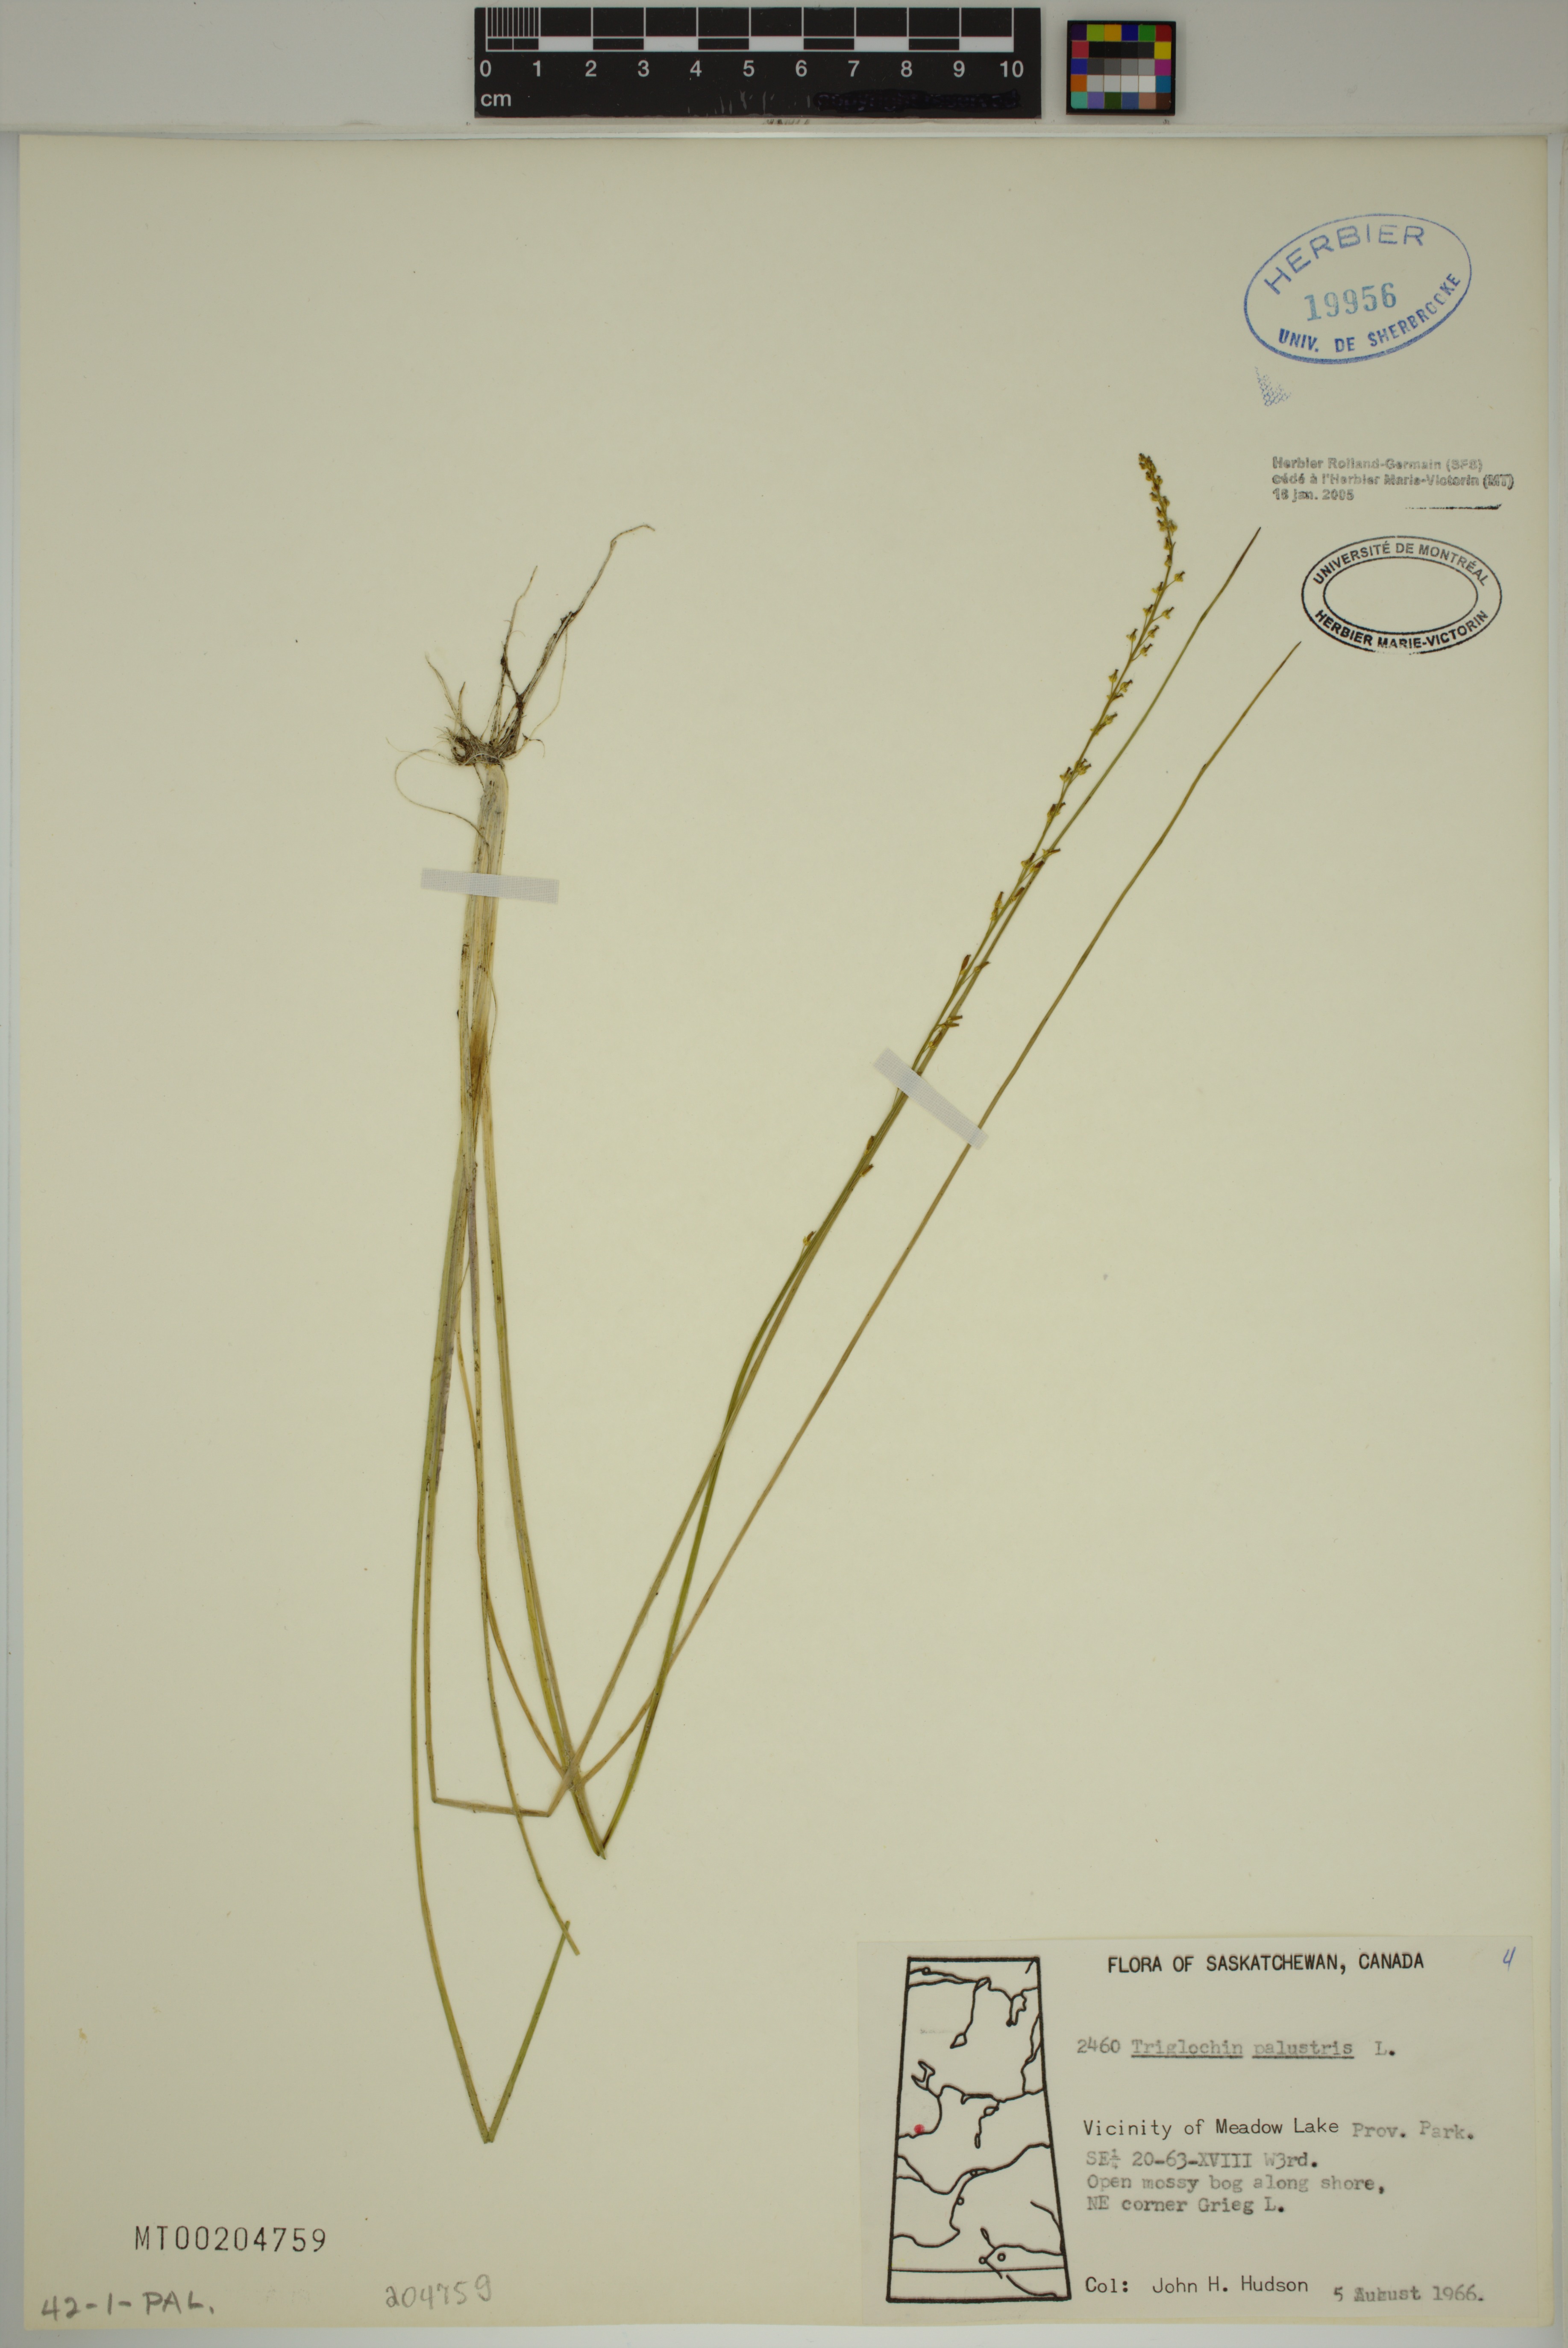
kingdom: Plantae
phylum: Tracheophyta
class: Liliopsida
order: Alismatales
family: Juncaginaceae
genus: Triglochin
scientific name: Triglochin palustris
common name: Marsh arrowgrass
